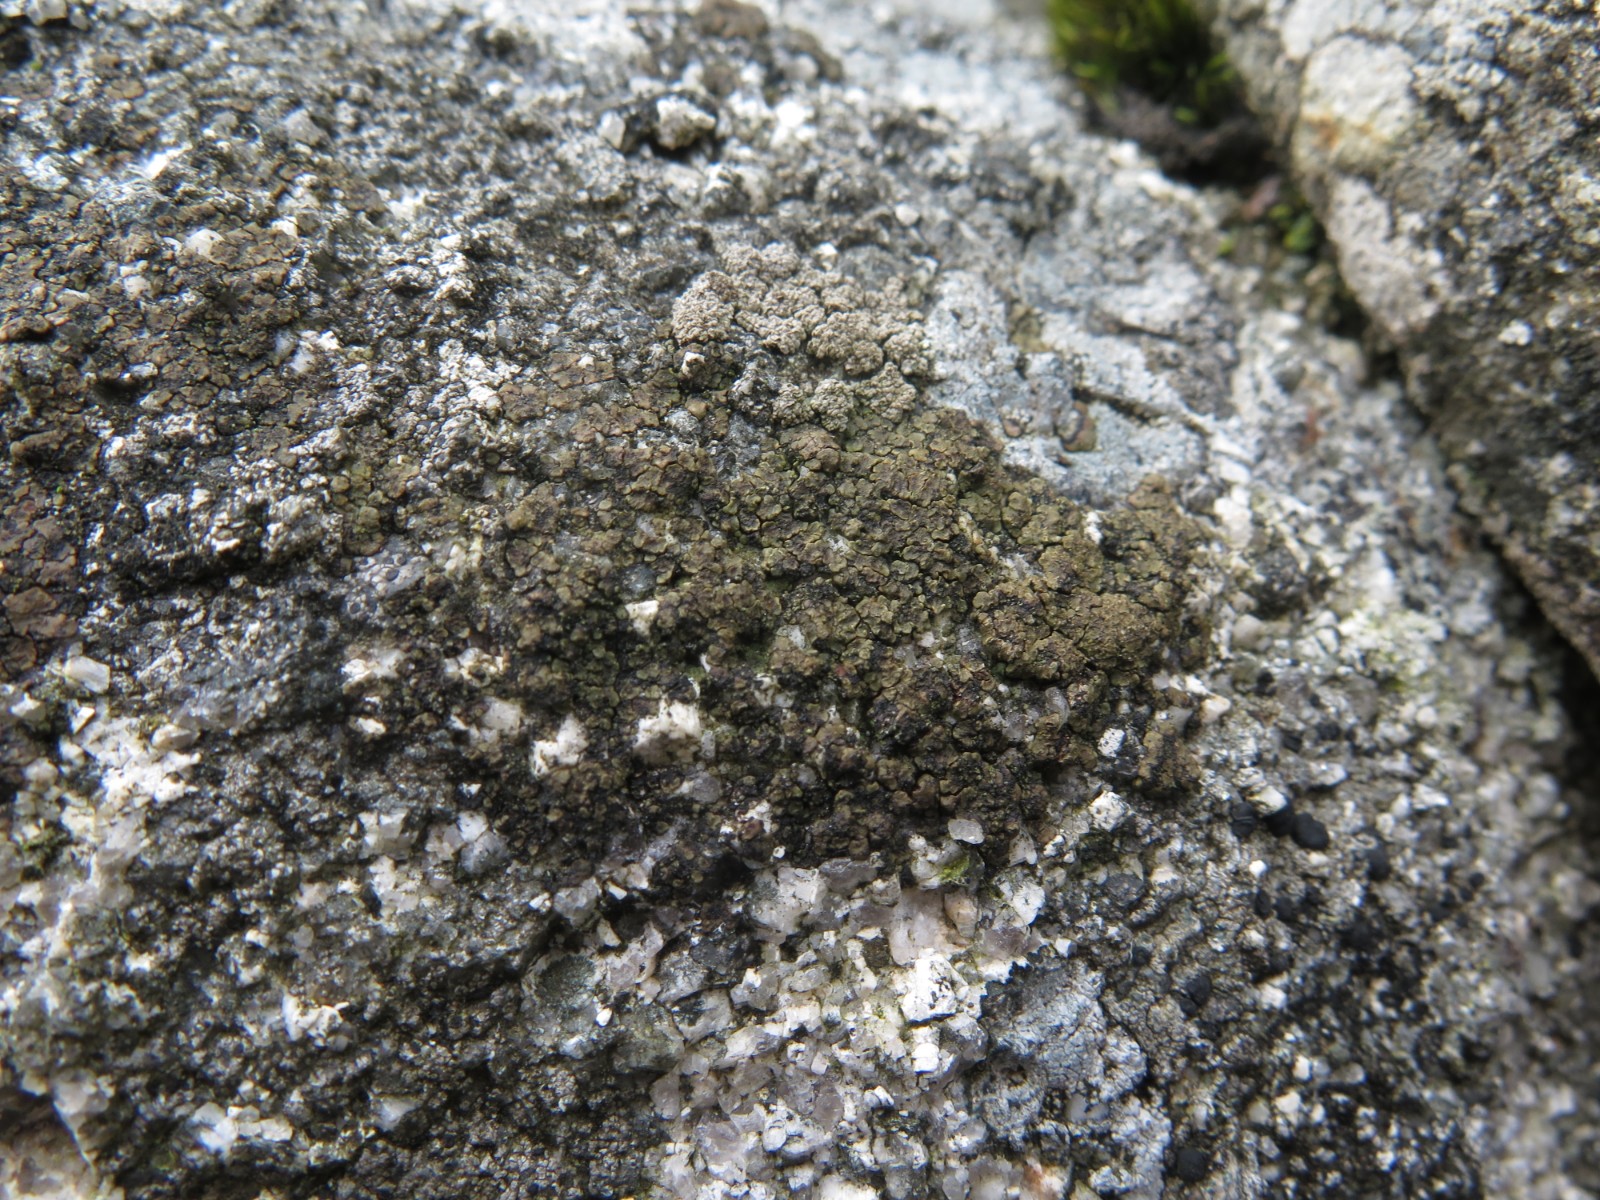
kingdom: Fungi
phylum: Ascomycota
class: Lecanoromycetes
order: Acarosporales
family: Acarosporaceae
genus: Acarospora
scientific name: Acarospora fuscata
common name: brun småsporelav
